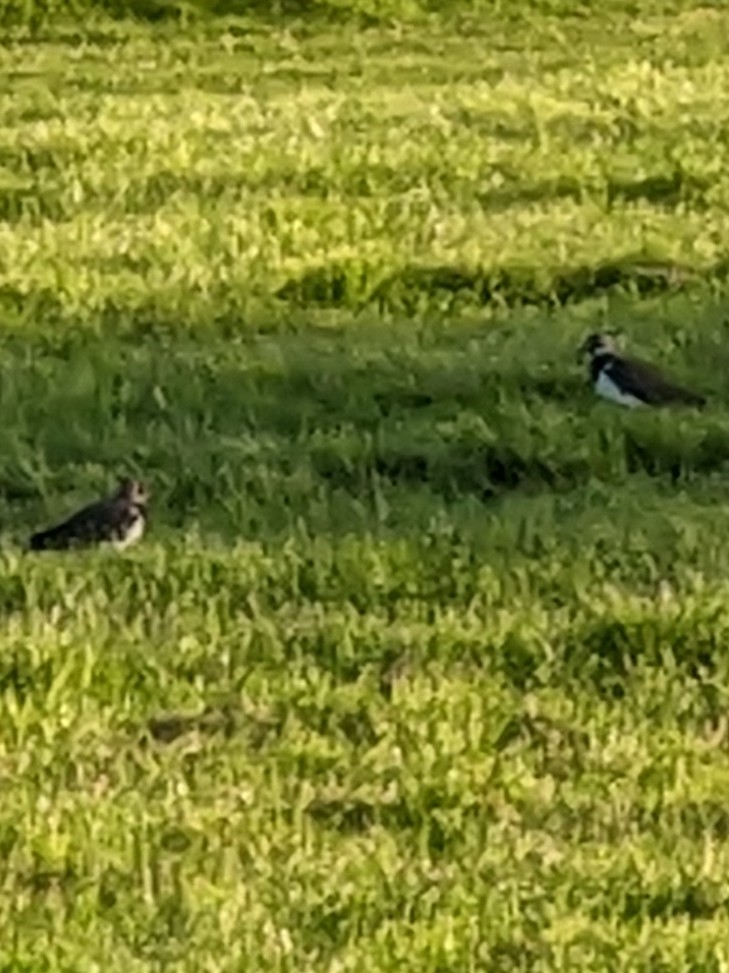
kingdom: Animalia
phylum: Chordata
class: Aves
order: Charadriiformes
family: Charadriidae
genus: Vanellus
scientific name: Vanellus vanellus
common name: Vibe
